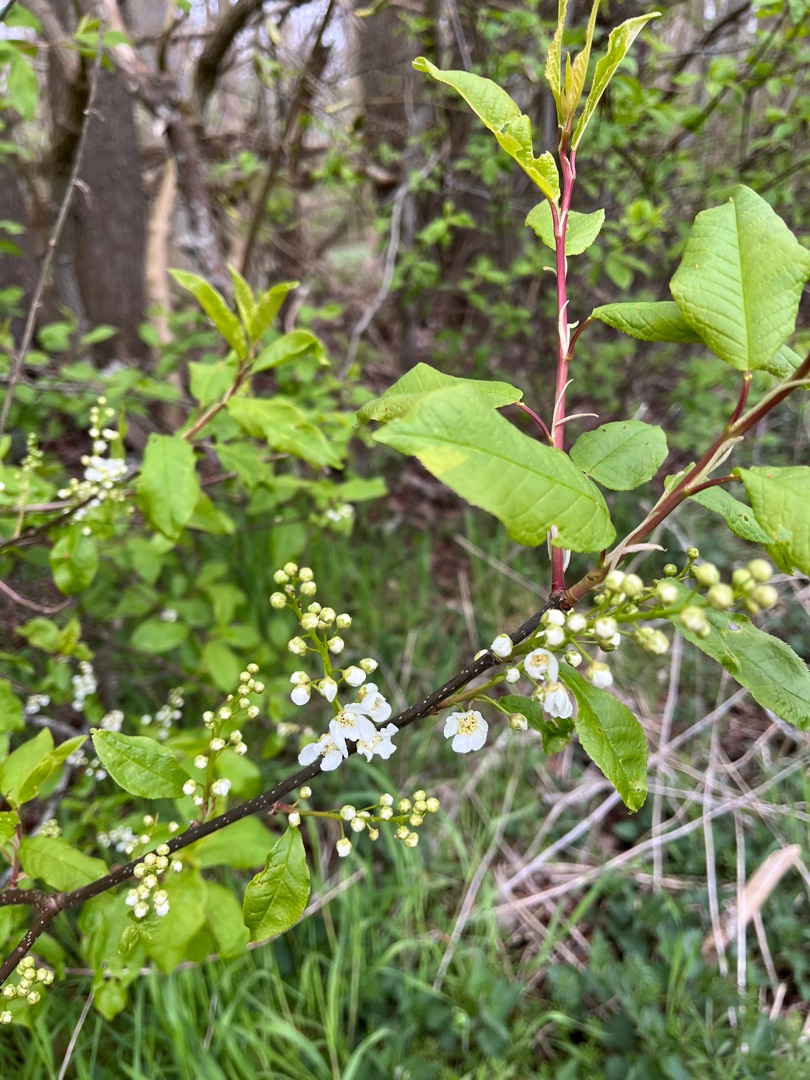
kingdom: Plantae
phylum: Tracheophyta
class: Magnoliopsida
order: Rosales
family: Rosaceae
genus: Prunus
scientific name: Prunus padus
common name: Almindelig hæg
